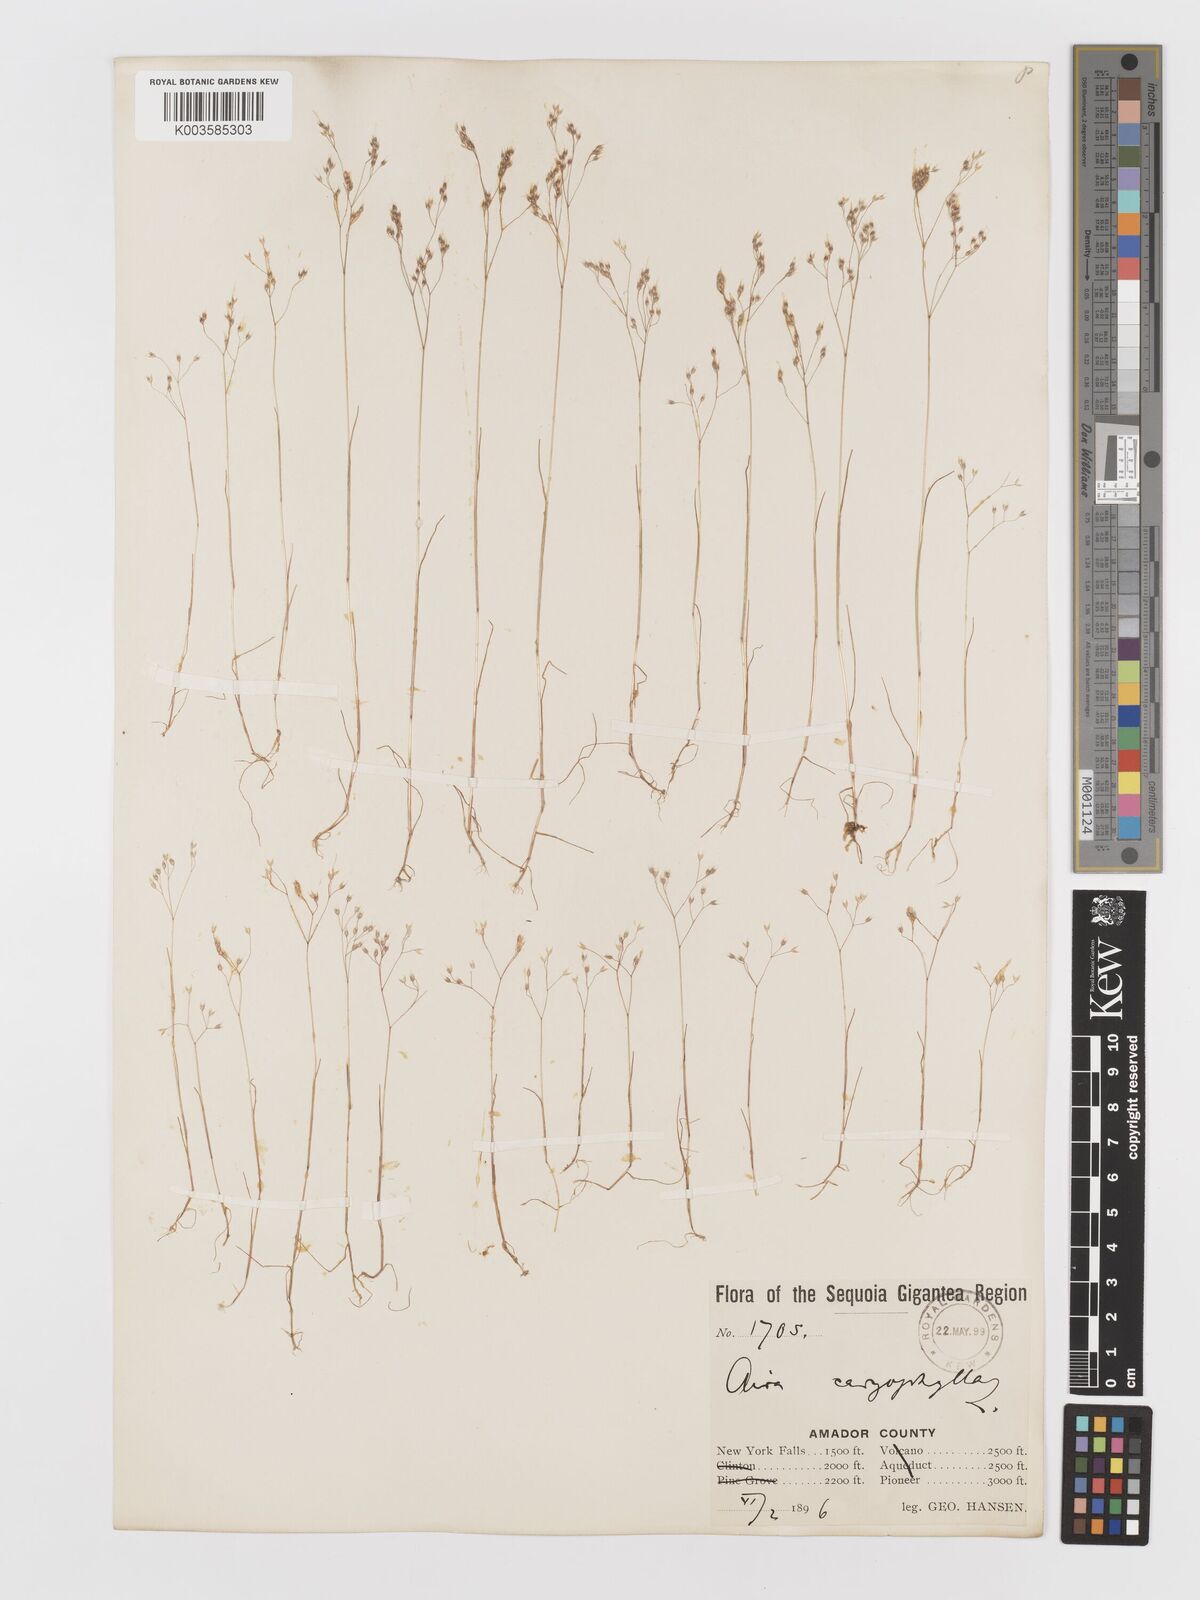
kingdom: Plantae
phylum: Tracheophyta
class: Liliopsida
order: Poales
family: Poaceae
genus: Aira
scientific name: Aira caryophyllea
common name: Silver hairgrass
